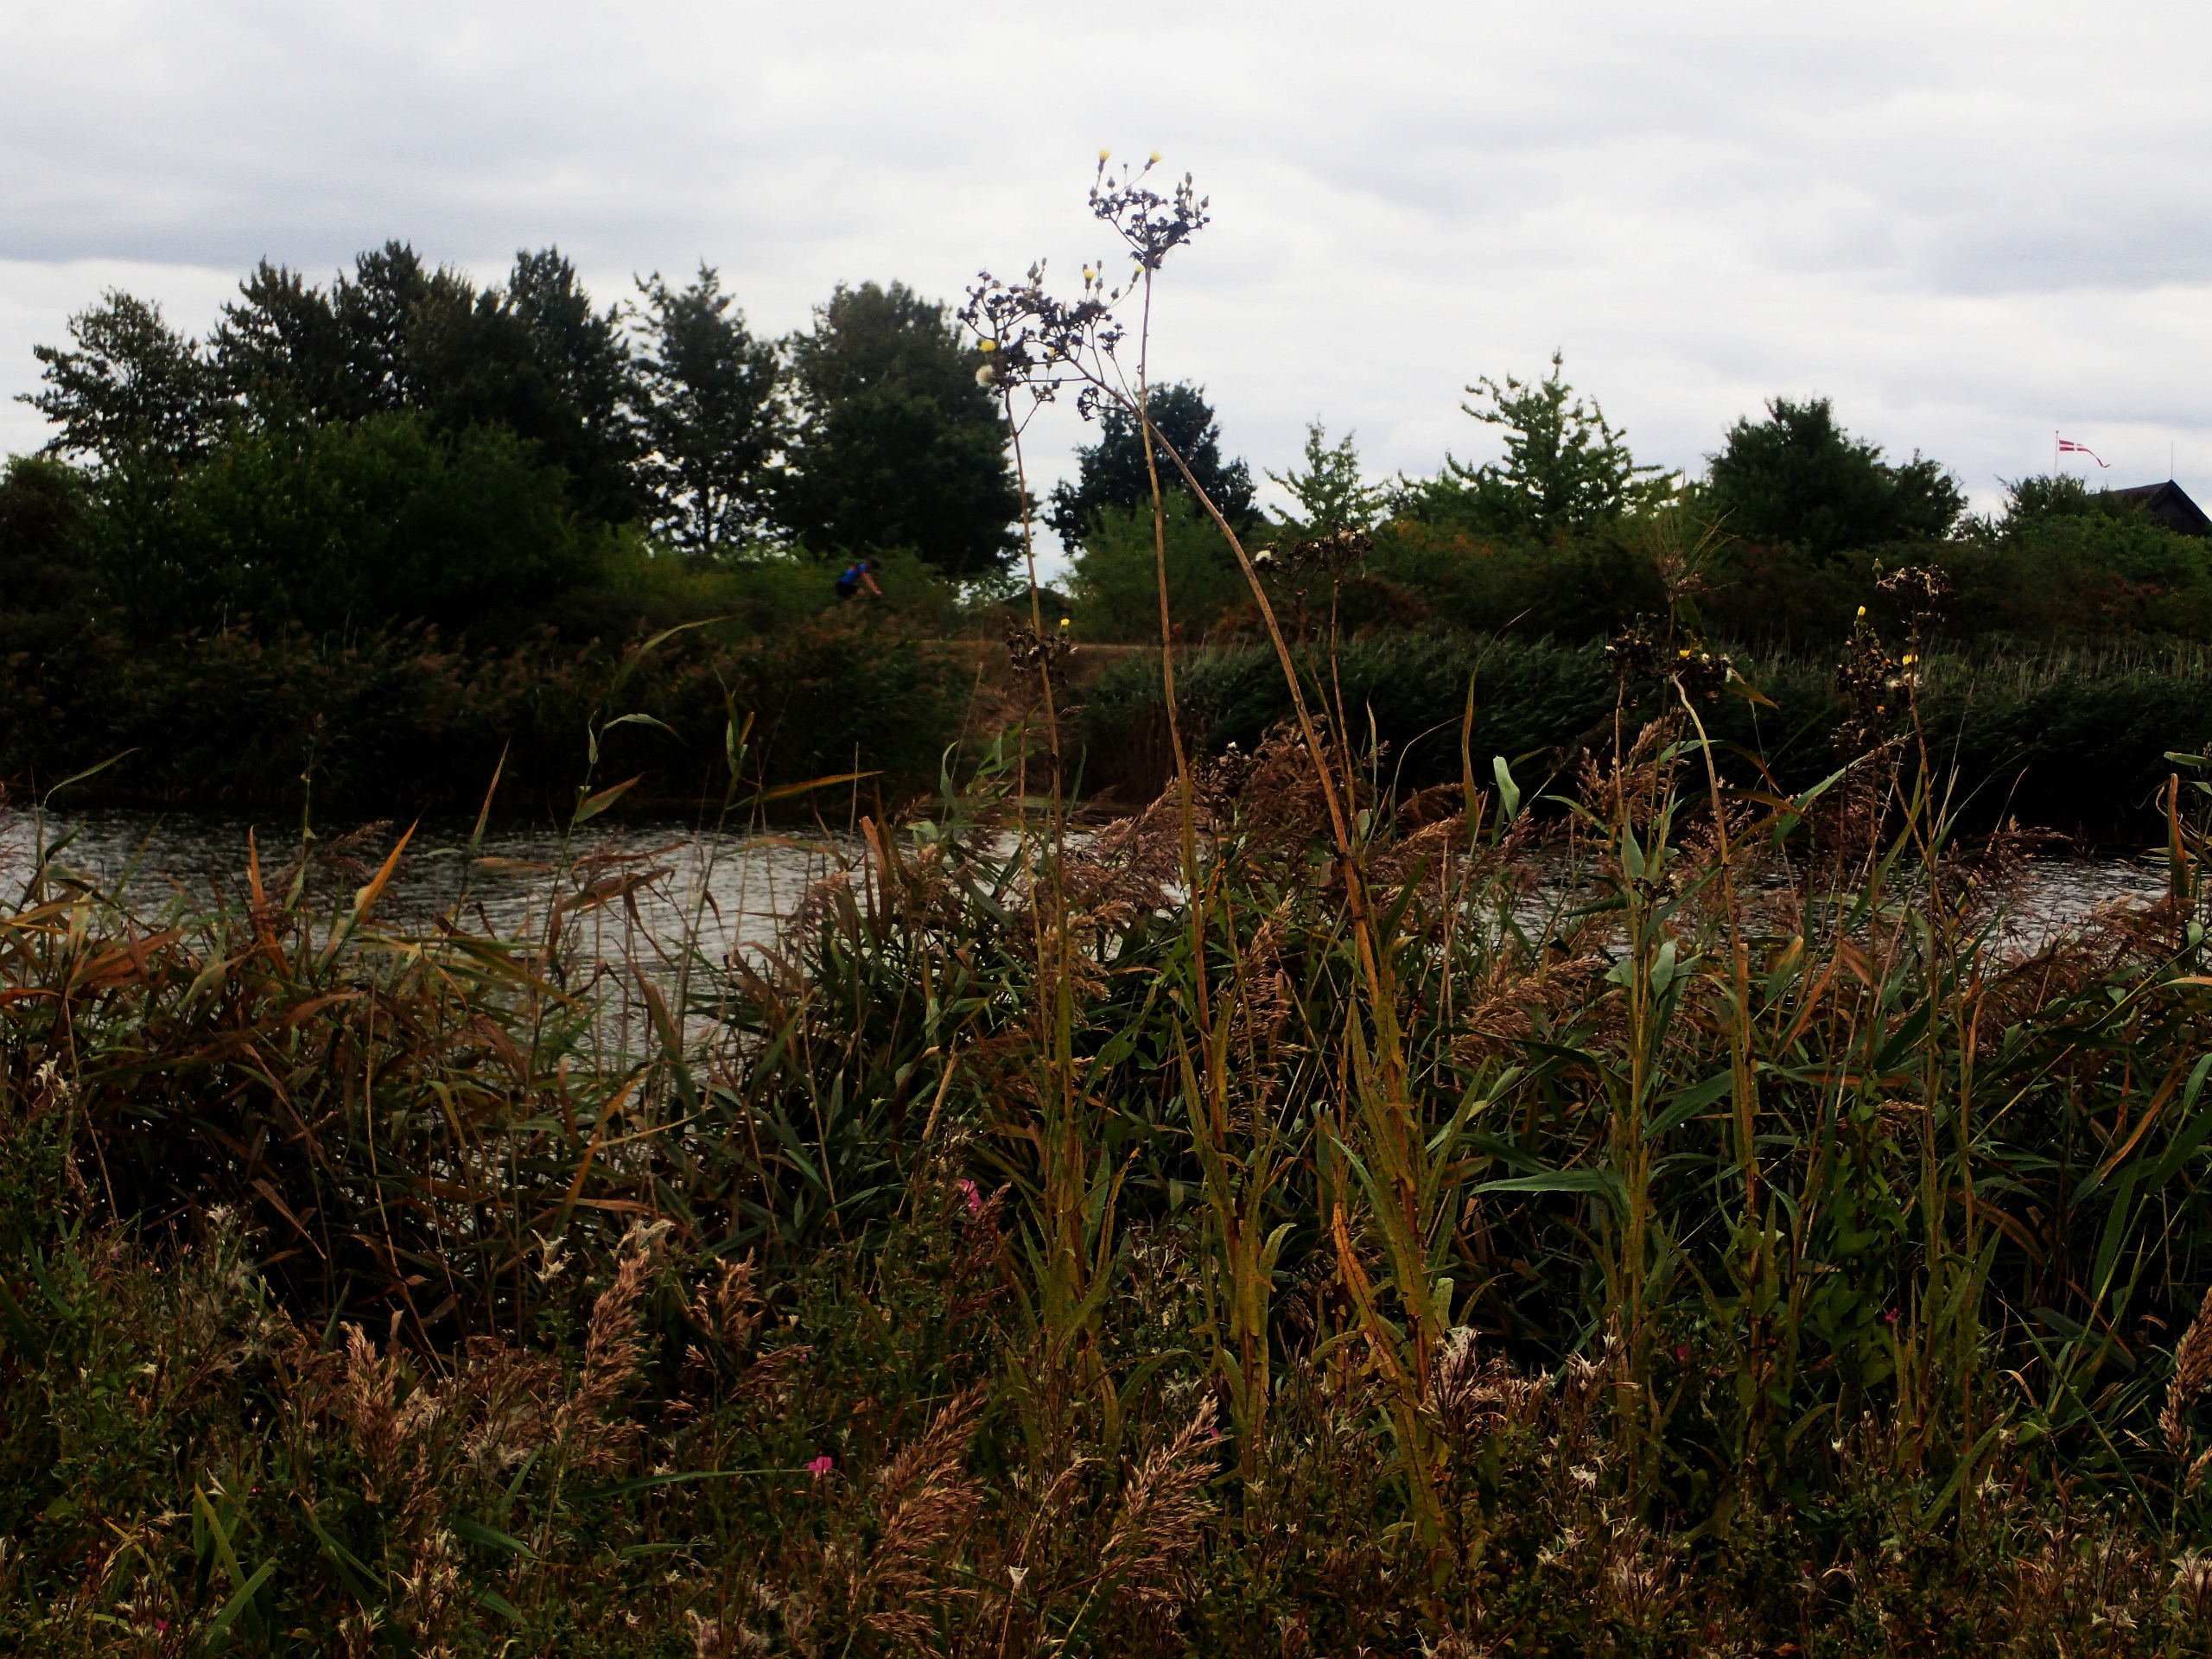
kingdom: Plantae
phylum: Tracheophyta
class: Magnoliopsida
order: Asterales
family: Asteraceae
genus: Sonchus
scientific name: Sonchus palustris
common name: Kær-svinemælk
